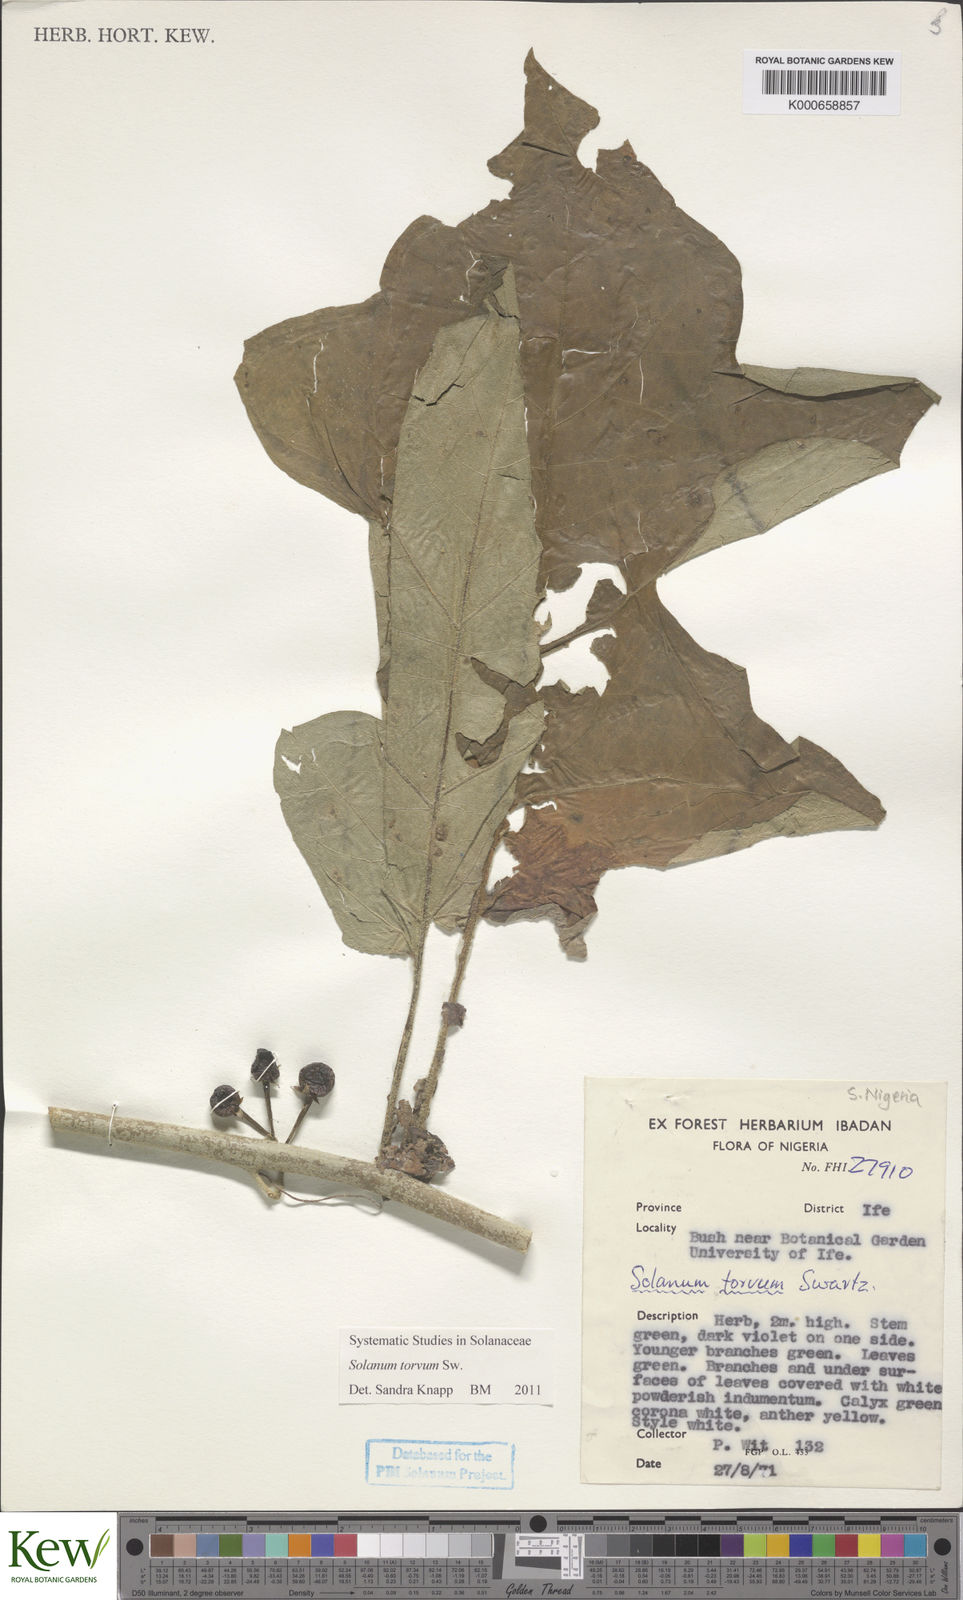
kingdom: Plantae
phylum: Tracheophyta
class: Magnoliopsida
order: Solanales
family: Solanaceae
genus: Solanum
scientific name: Solanum torvum
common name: Turkey berry
